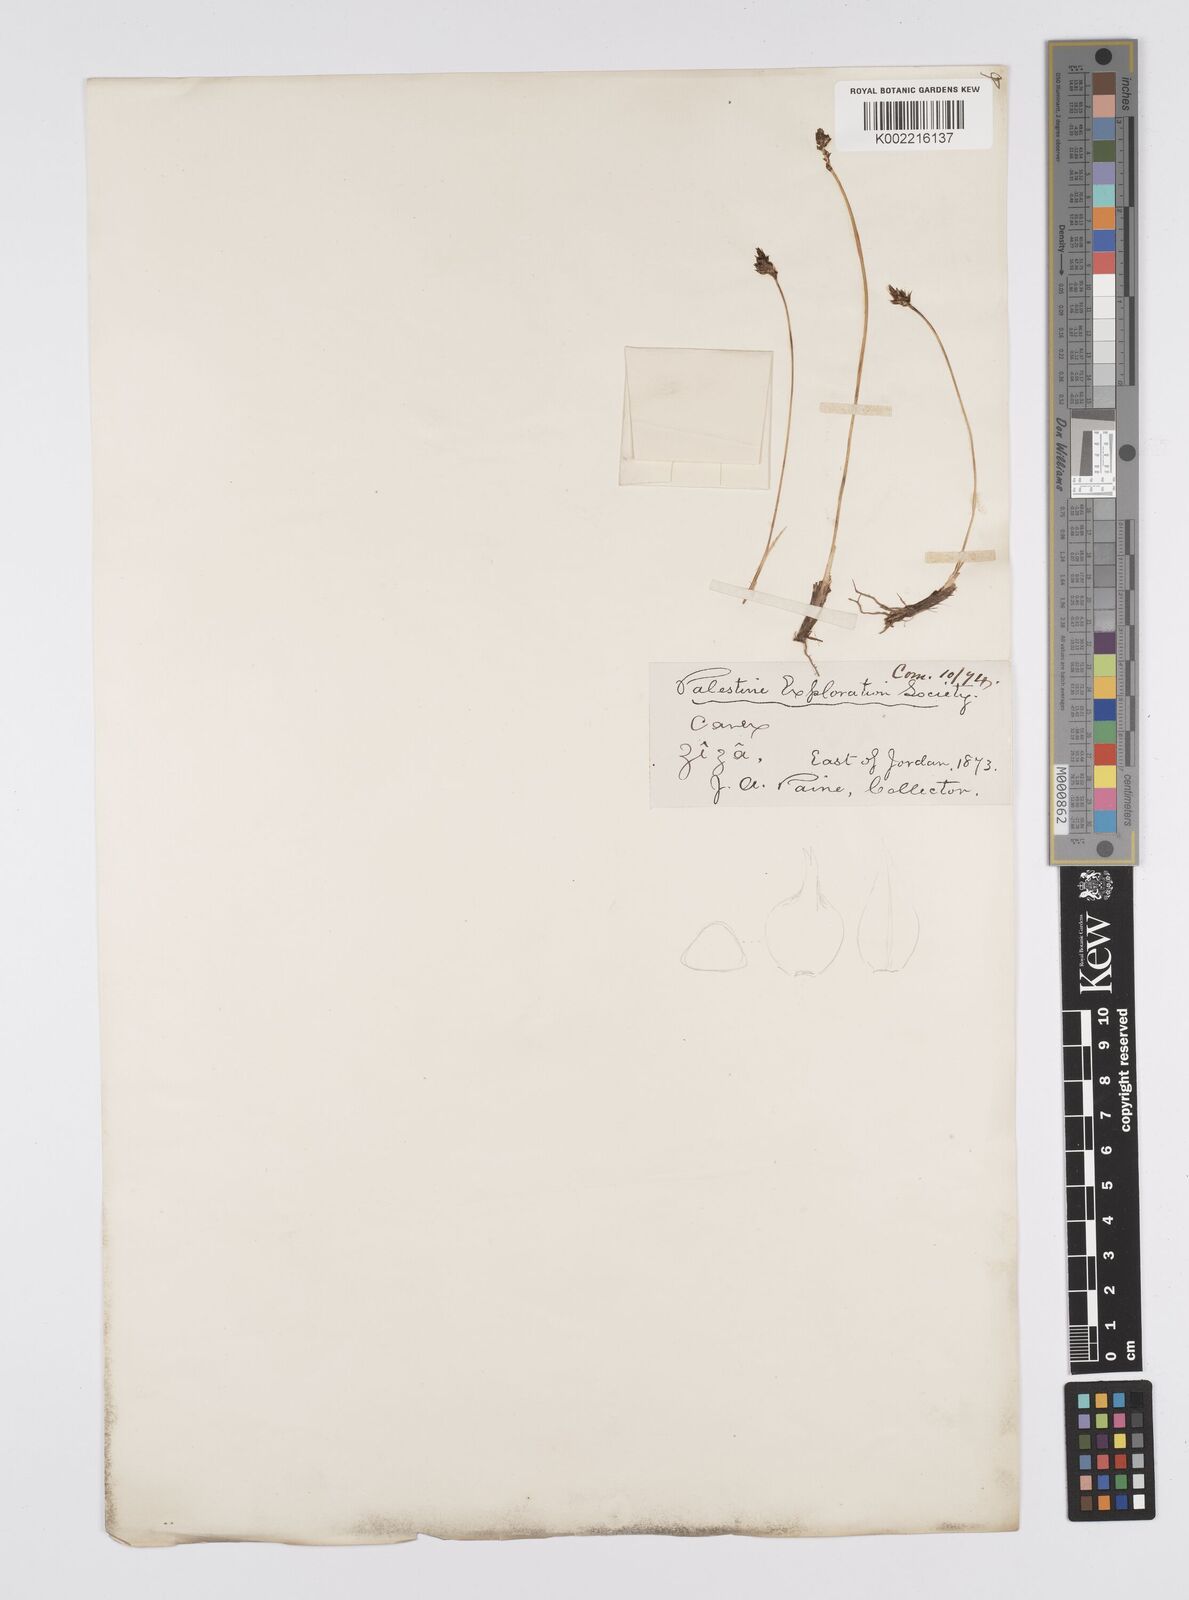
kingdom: Plantae
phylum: Tracheophyta
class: Liliopsida
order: Poales
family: Cyperaceae
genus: Carex
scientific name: Carex divisa
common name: Divided sedge
